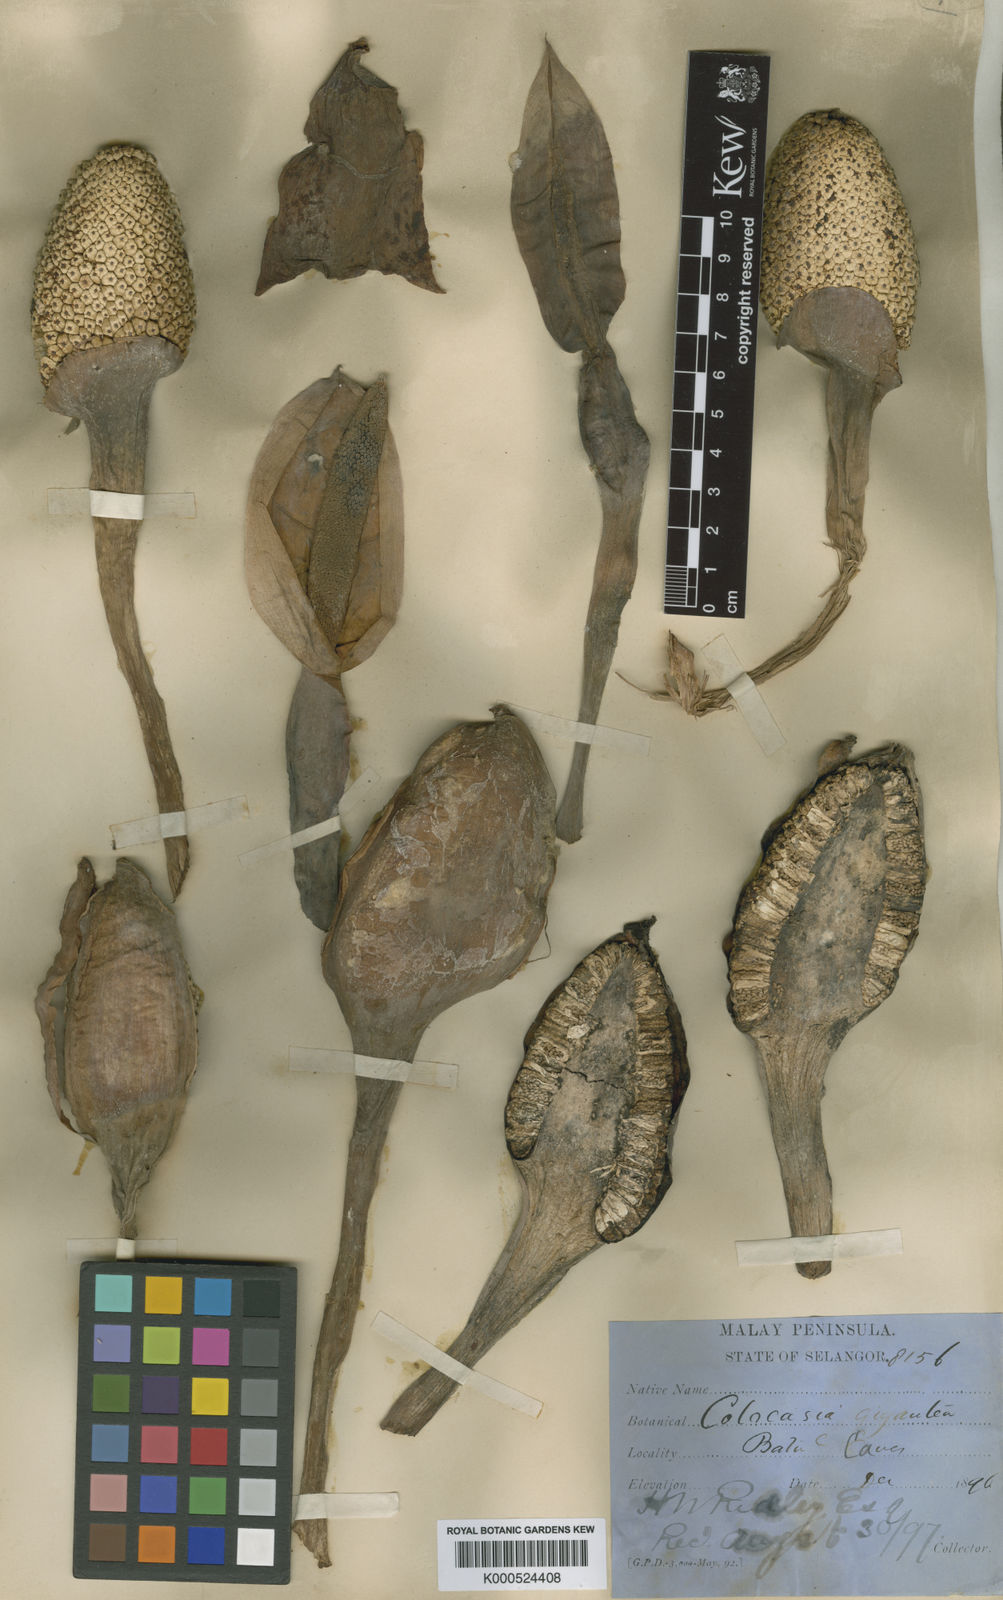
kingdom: Plantae
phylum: Tracheophyta
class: Liliopsida
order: Alismatales
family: Araceae
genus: Leucocasia
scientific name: Leucocasia gigantea
